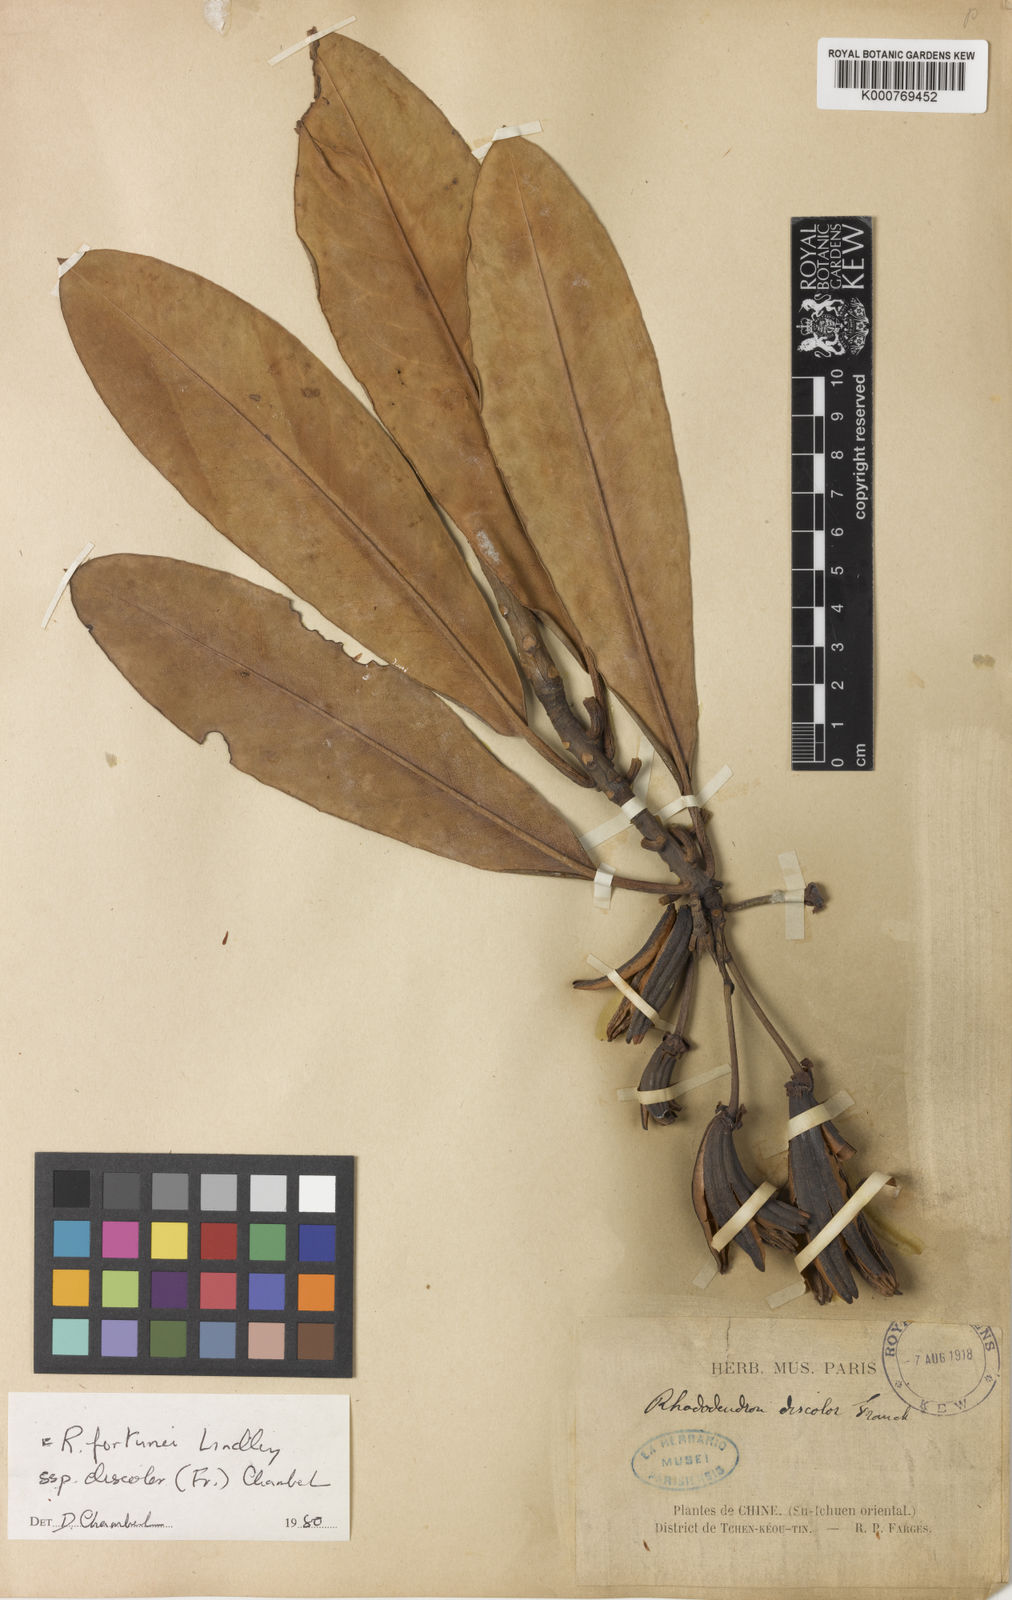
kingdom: Plantae
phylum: Tracheophyta
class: Magnoliopsida
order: Ericales
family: Ericaceae
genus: Rhododendron
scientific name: Rhododendron fortunei
